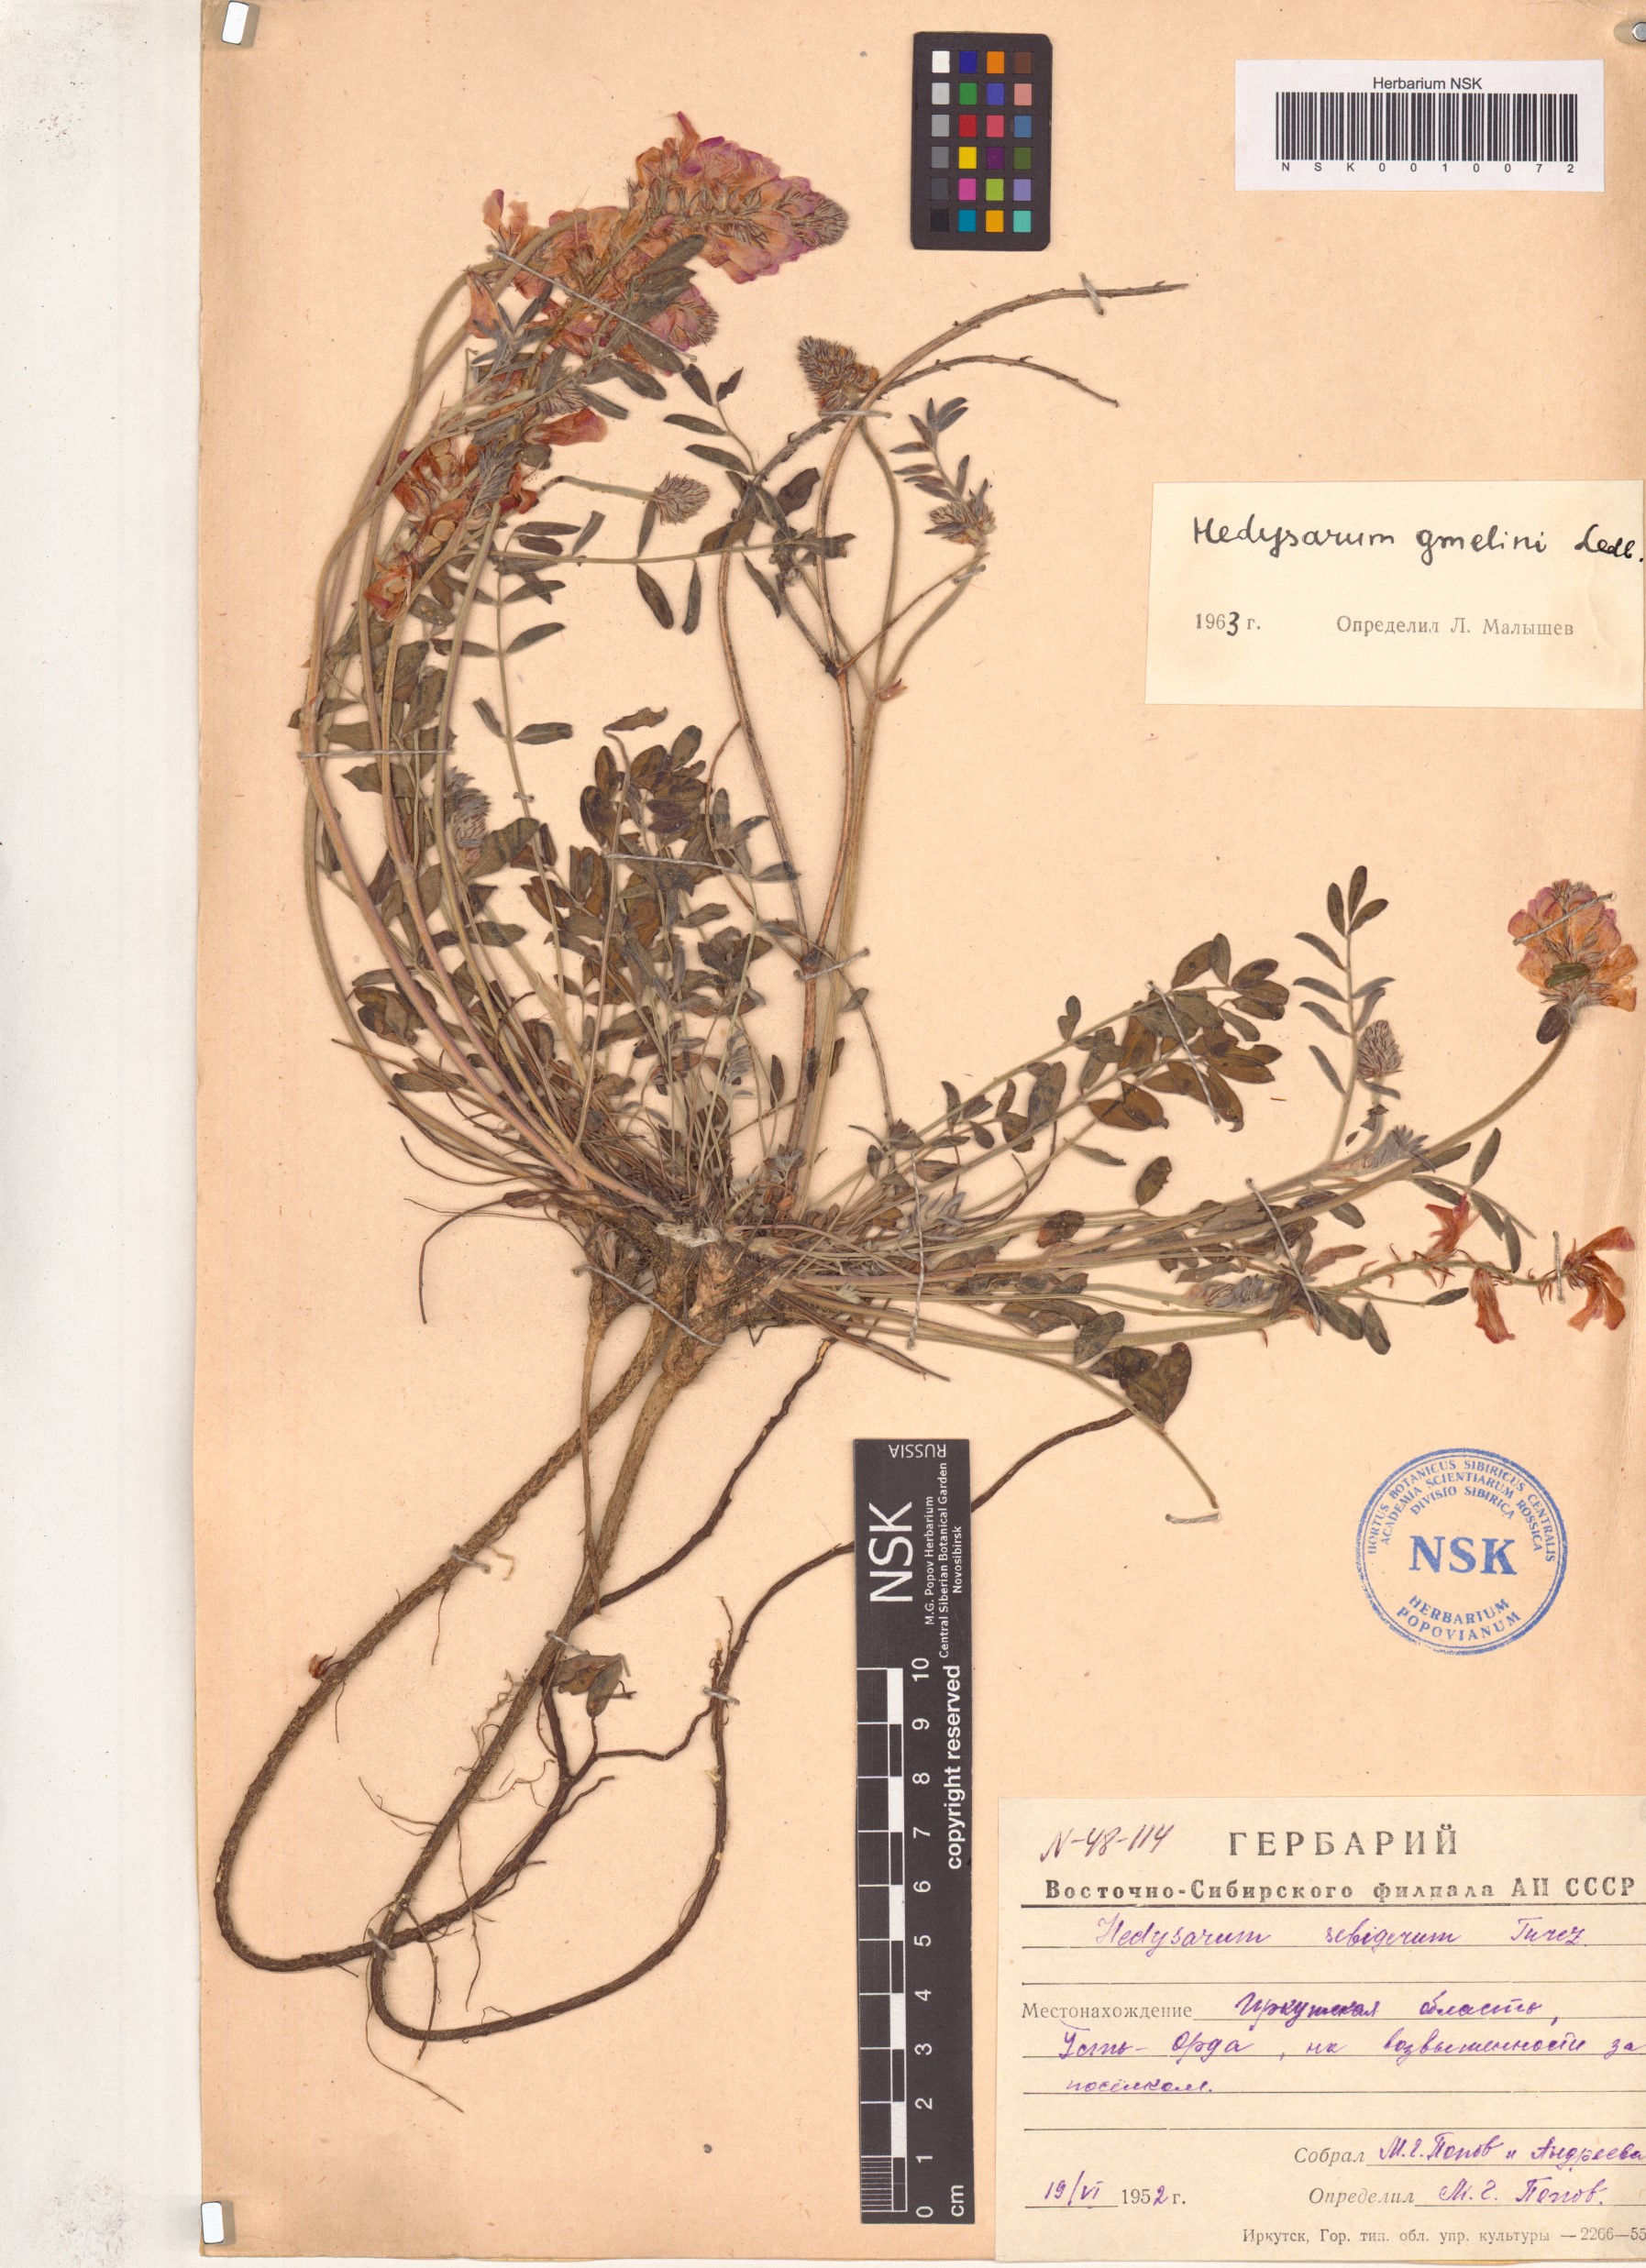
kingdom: Plantae
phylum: Tracheophyta
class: Magnoliopsida
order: Fabales
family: Fabaceae
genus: Hedysarum
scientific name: Hedysarum gmelinii
